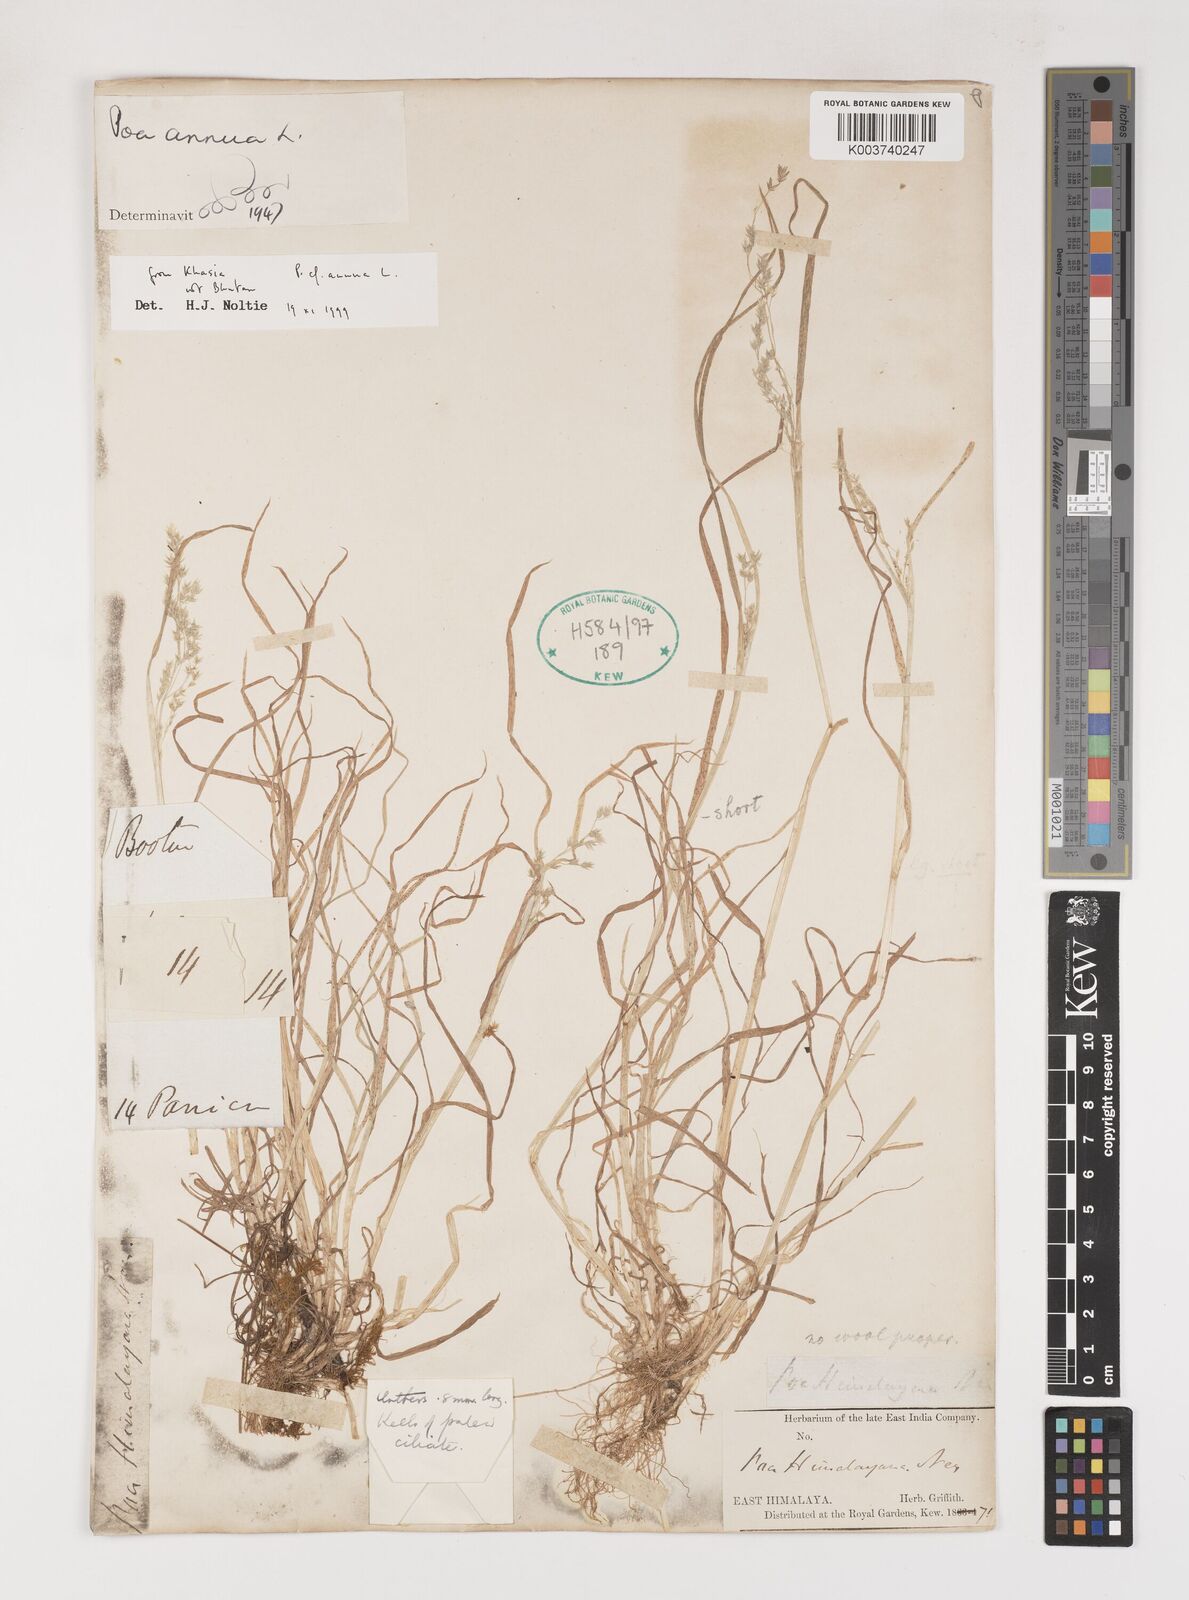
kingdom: Plantae
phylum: Tracheophyta
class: Liliopsida
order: Poales
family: Poaceae
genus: Poa
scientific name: Poa annua
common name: Annual bluegrass
